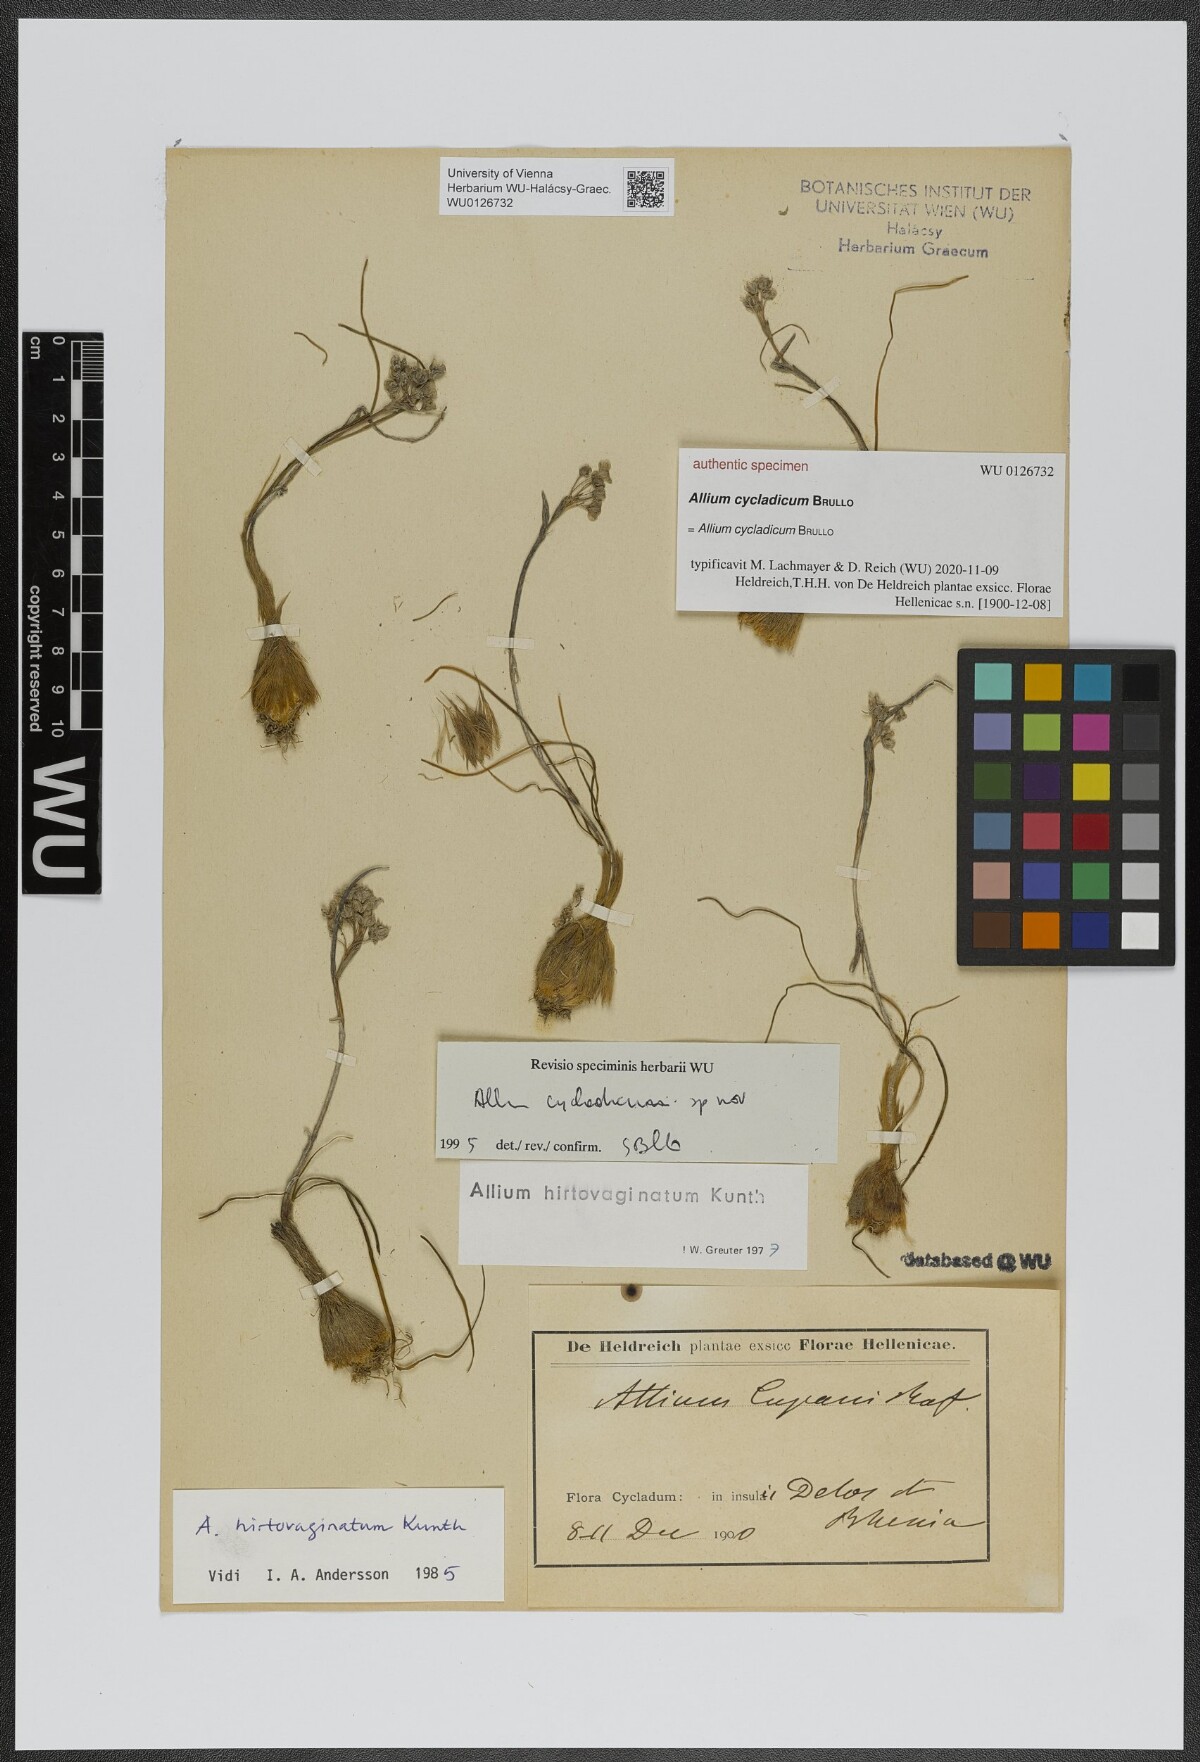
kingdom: Plantae
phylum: Tracheophyta
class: Liliopsida
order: Asparagales
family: Amaryllidaceae
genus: Allium
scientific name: Allium bourgeaui
